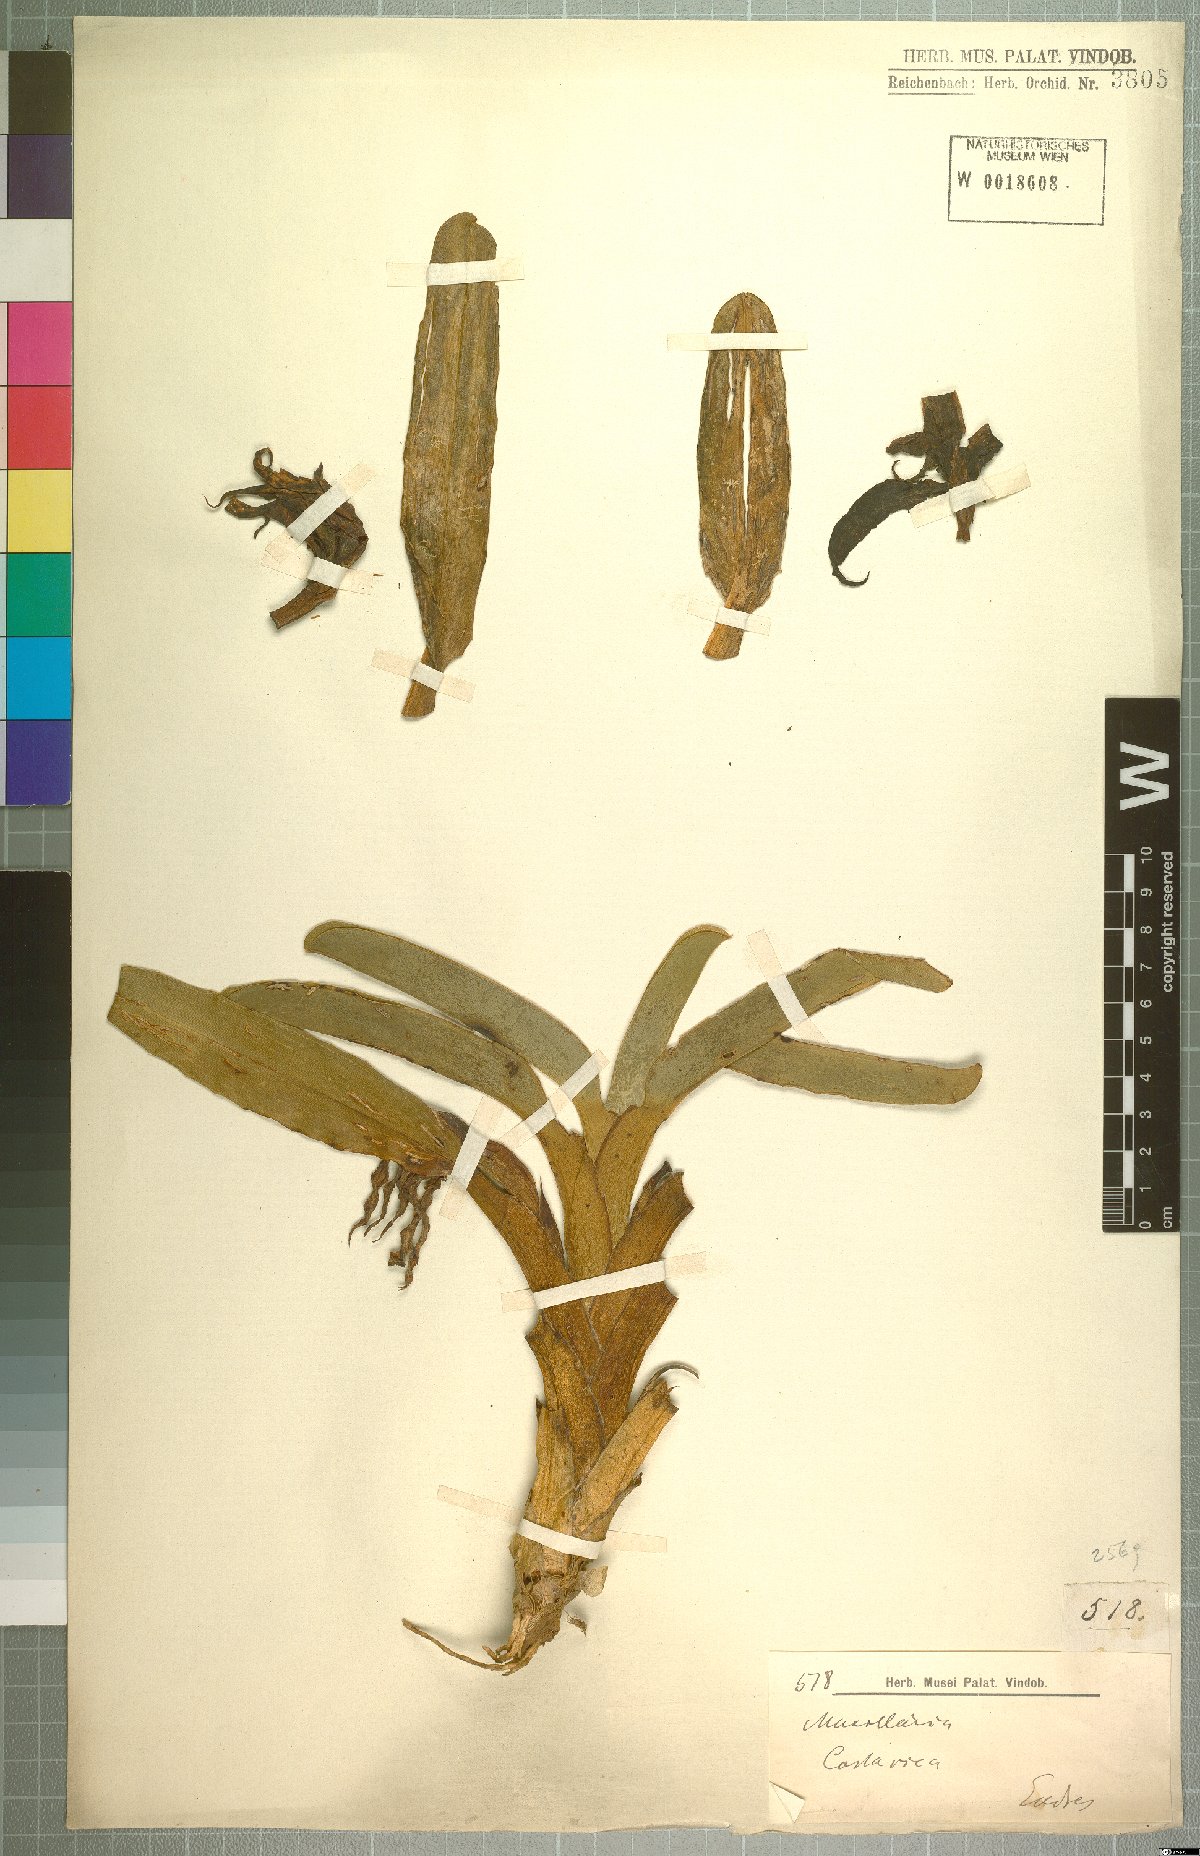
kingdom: Plantae
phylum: Tracheophyta
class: Liliopsida
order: Asparagales
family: Orchidaceae
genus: Maxillaria
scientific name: Maxillaria
